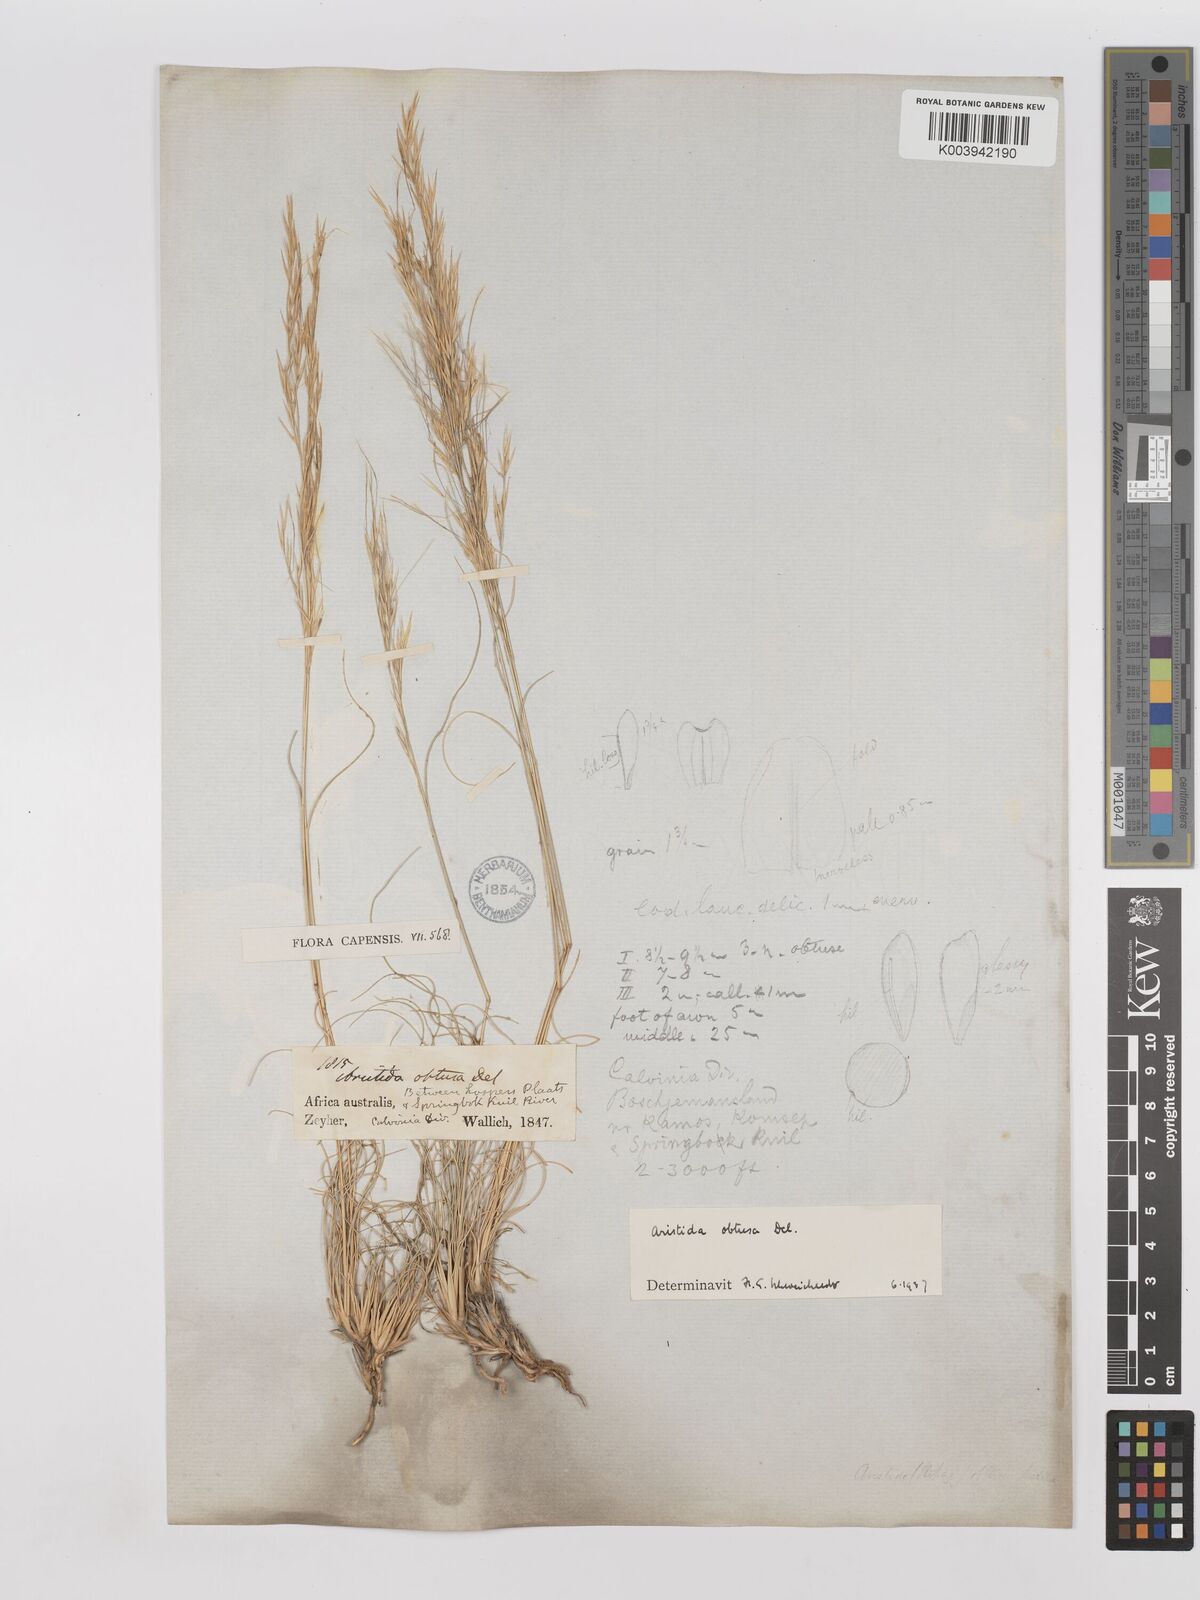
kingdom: Plantae
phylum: Tracheophyta
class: Liliopsida
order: Poales
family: Poaceae
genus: Stipagrostis
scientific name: Stipagrostis obtusa
